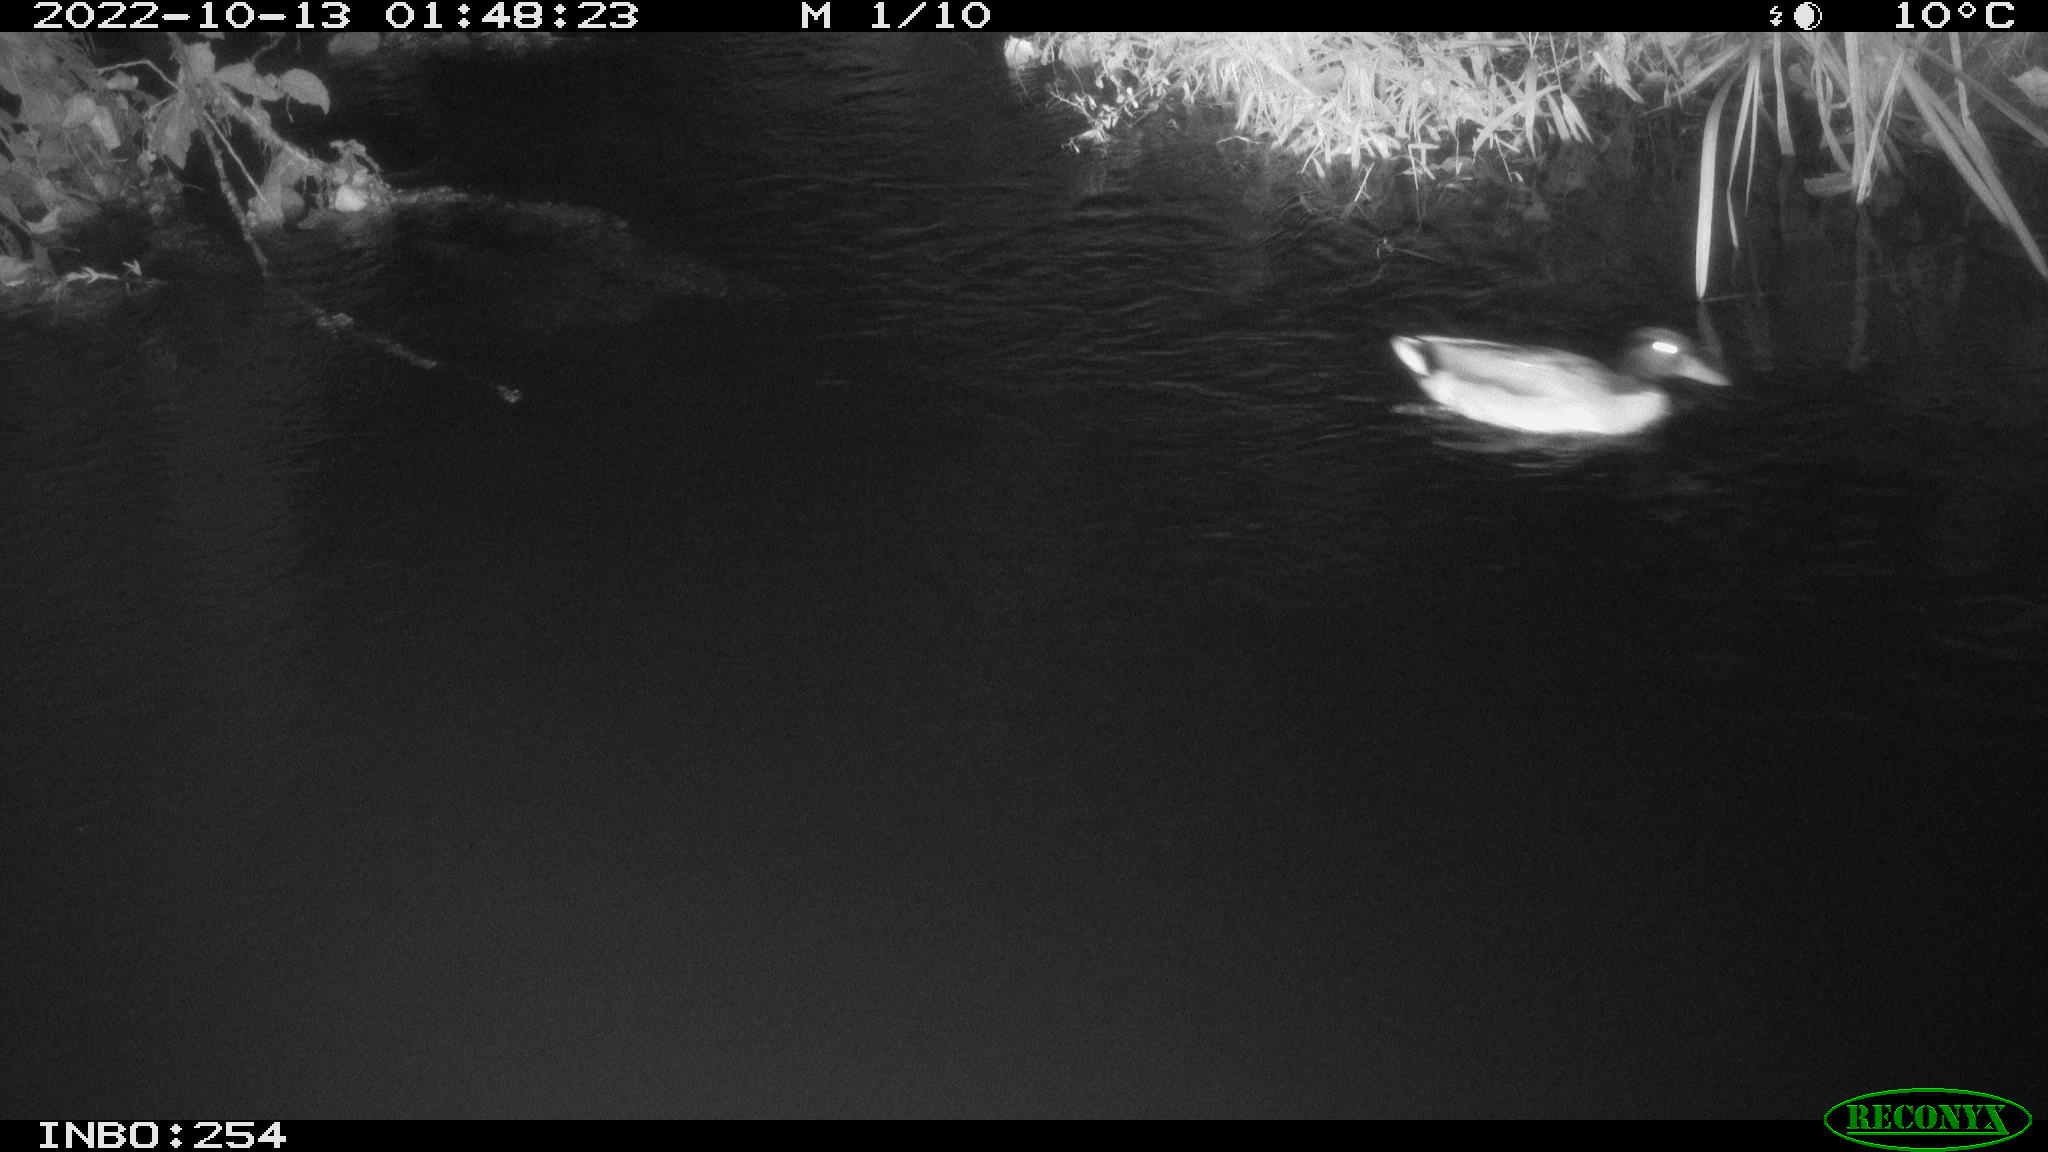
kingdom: Animalia
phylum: Chordata
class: Aves
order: Anseriformes
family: Anatidae
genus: Anas
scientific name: Anas
